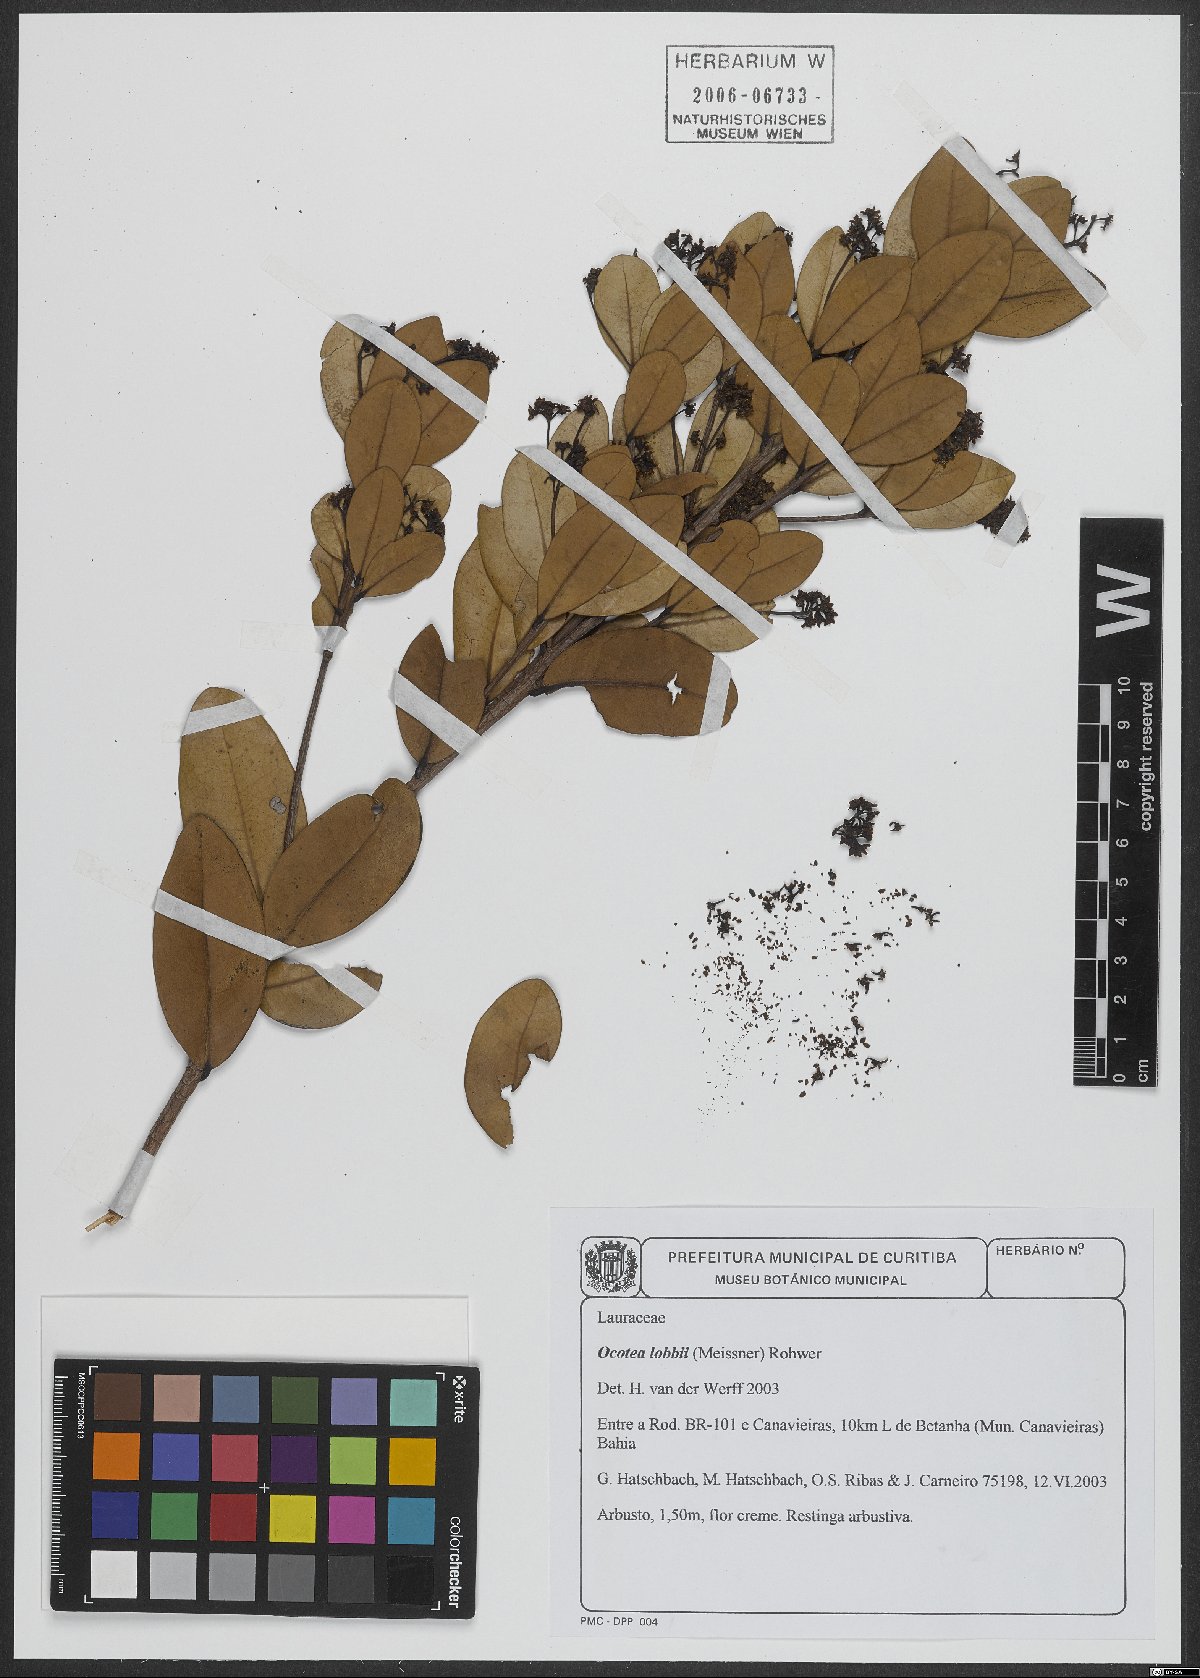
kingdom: Plantae
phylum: Tracheophyta
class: Magnoliopsida
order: Laurales
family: Lauraceae
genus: Ocotea
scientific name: Ocotea lobbii
